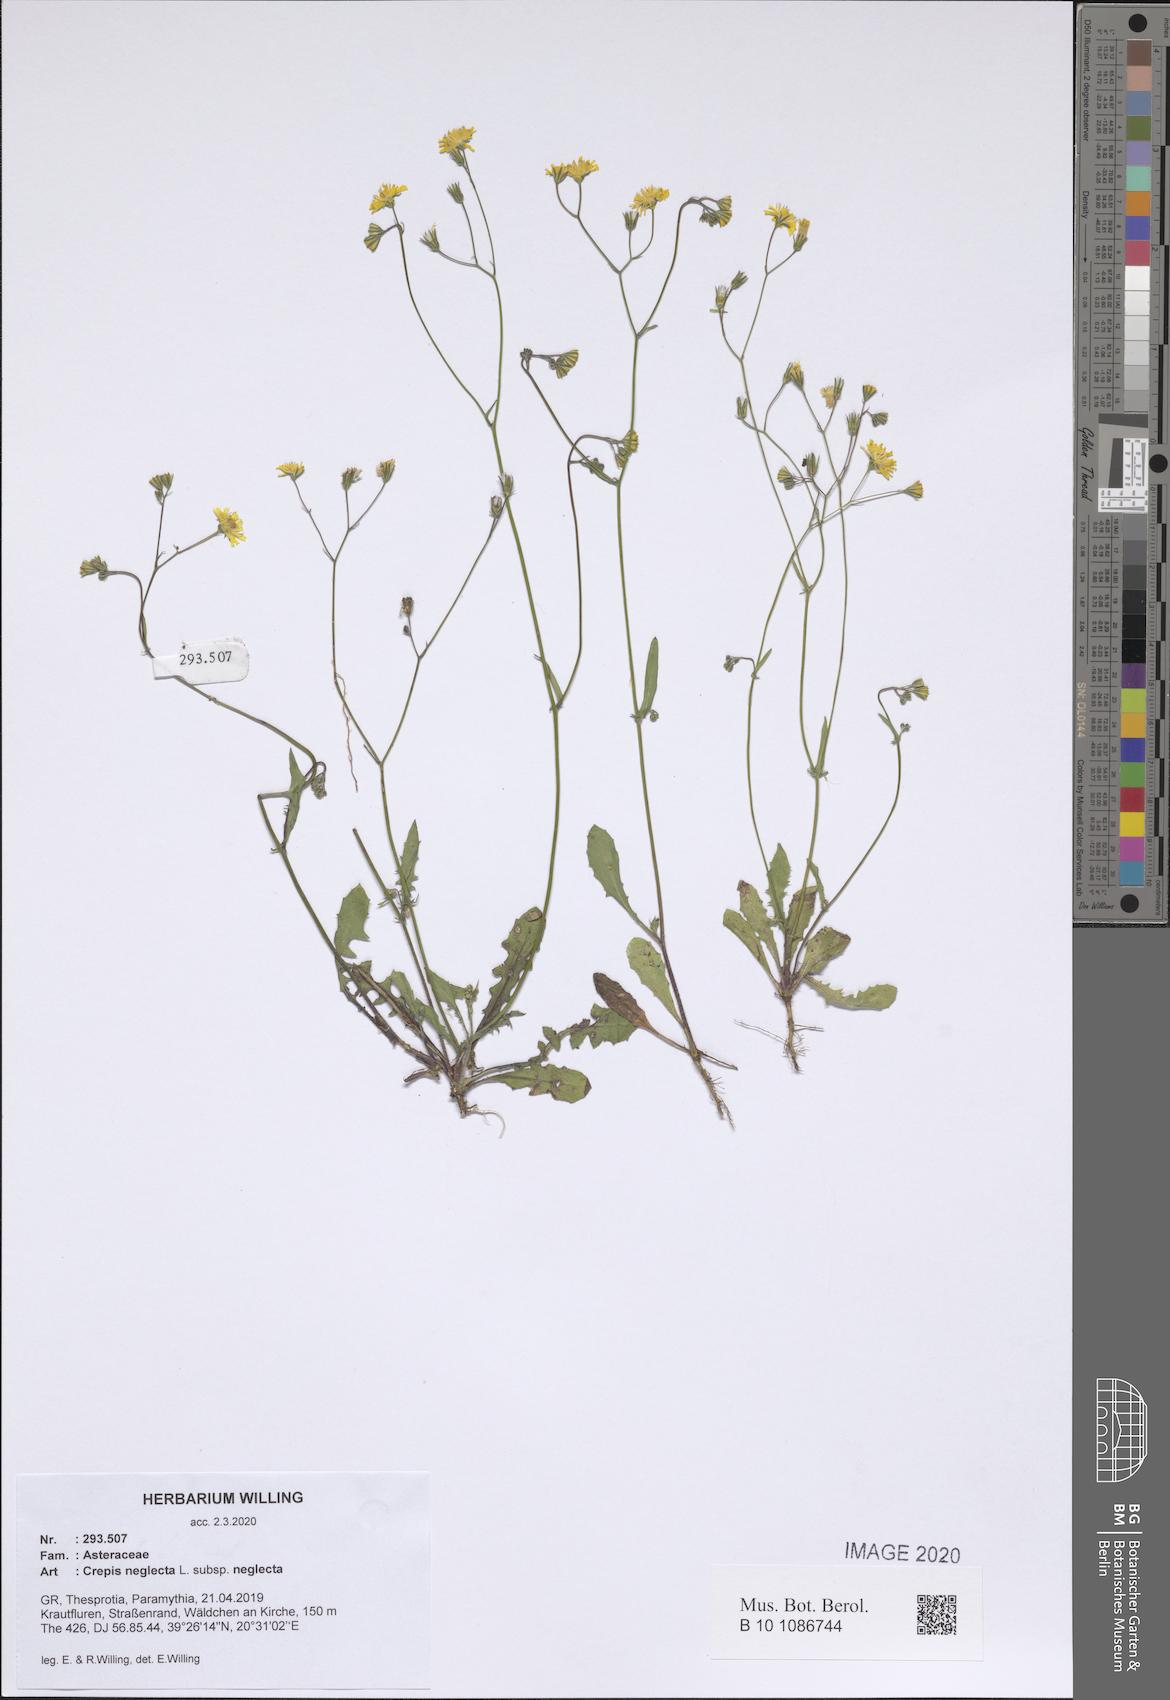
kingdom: Plantae
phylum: Tracheophyta
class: Magnoliopsida
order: Asterales
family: Asteraceae
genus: Crepis
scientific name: Crepis neglecta
